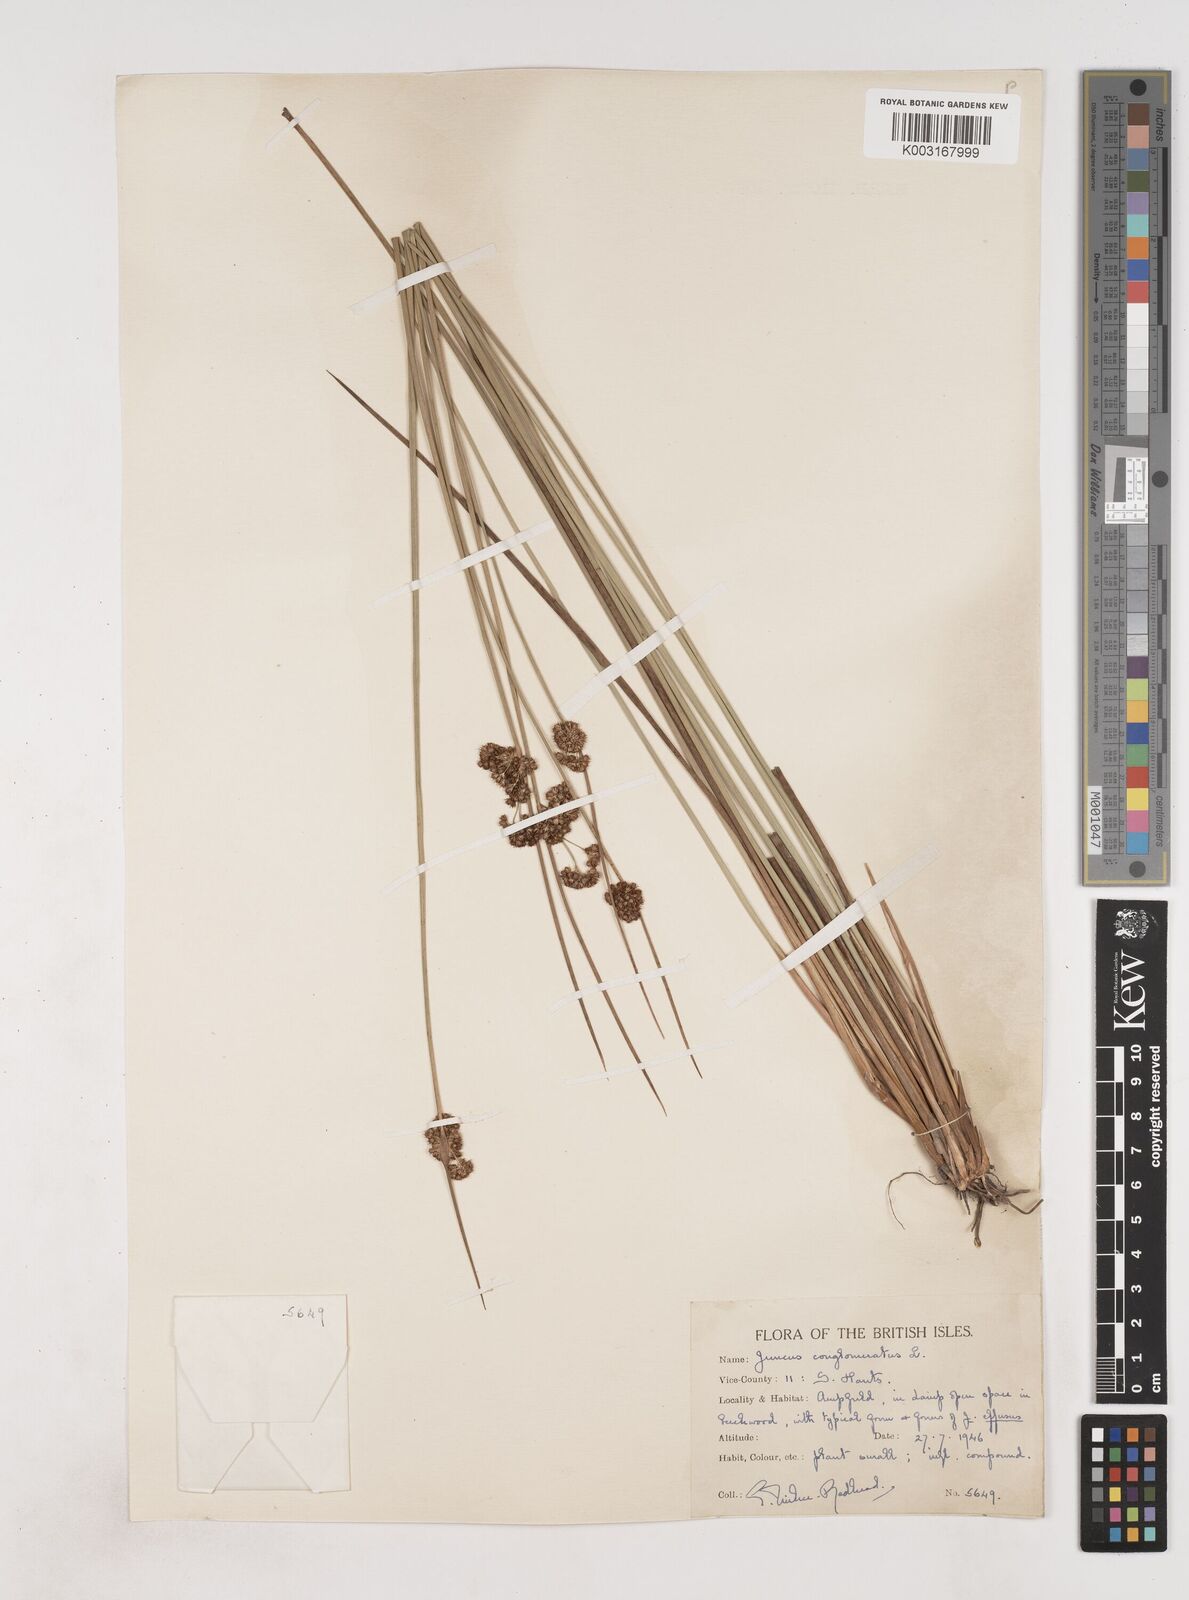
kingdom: Plantae
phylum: Tracheophyta
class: Liliopsida
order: Poales
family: Juncaceae
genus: Juncus
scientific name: Juncus conglomeratus
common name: Compact rush
